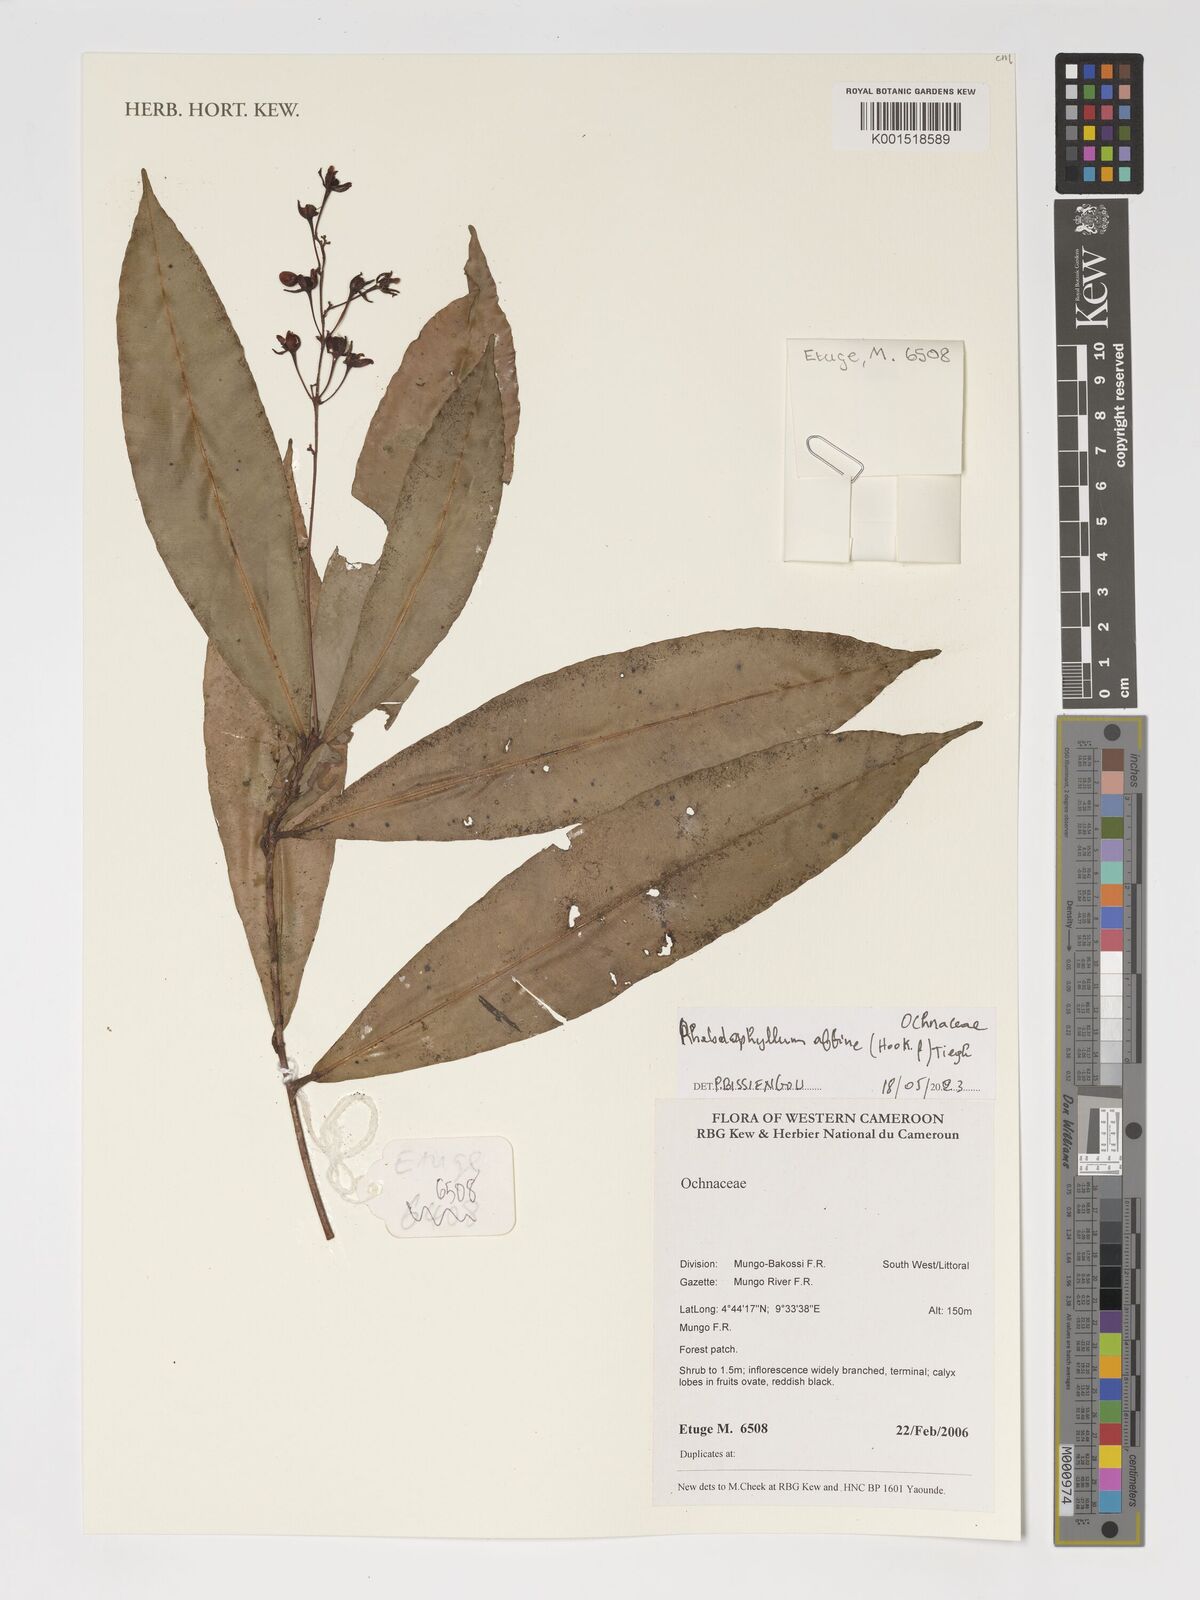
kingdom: Plantae
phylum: Tracheophyta
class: Magnoliopsida
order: Malpighiales
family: Ochnaceae
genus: Rhabdophyllum
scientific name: Rhabdophyllum affine
